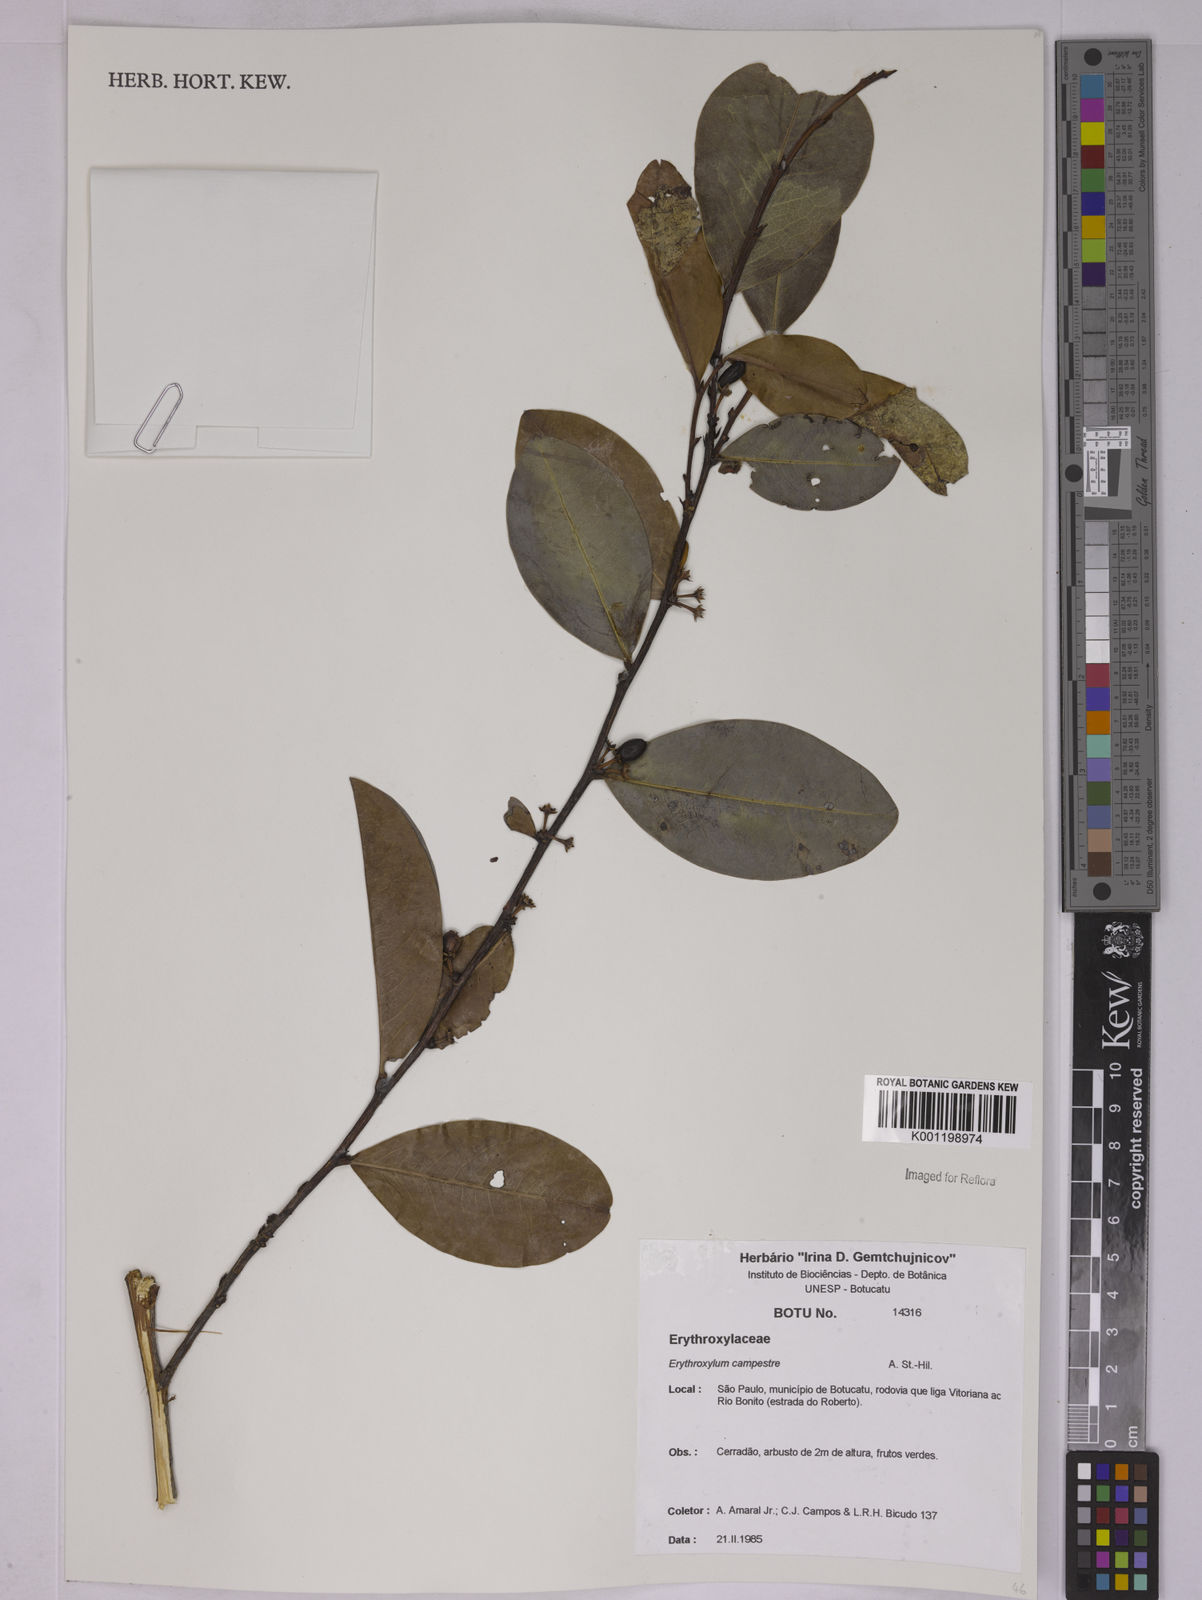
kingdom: Plantae
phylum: Tracheophyta
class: Magnoliopsida
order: Malpighiales
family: Erythroxylaceae
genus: Erythroxylum
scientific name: Erythroxylum campestre
